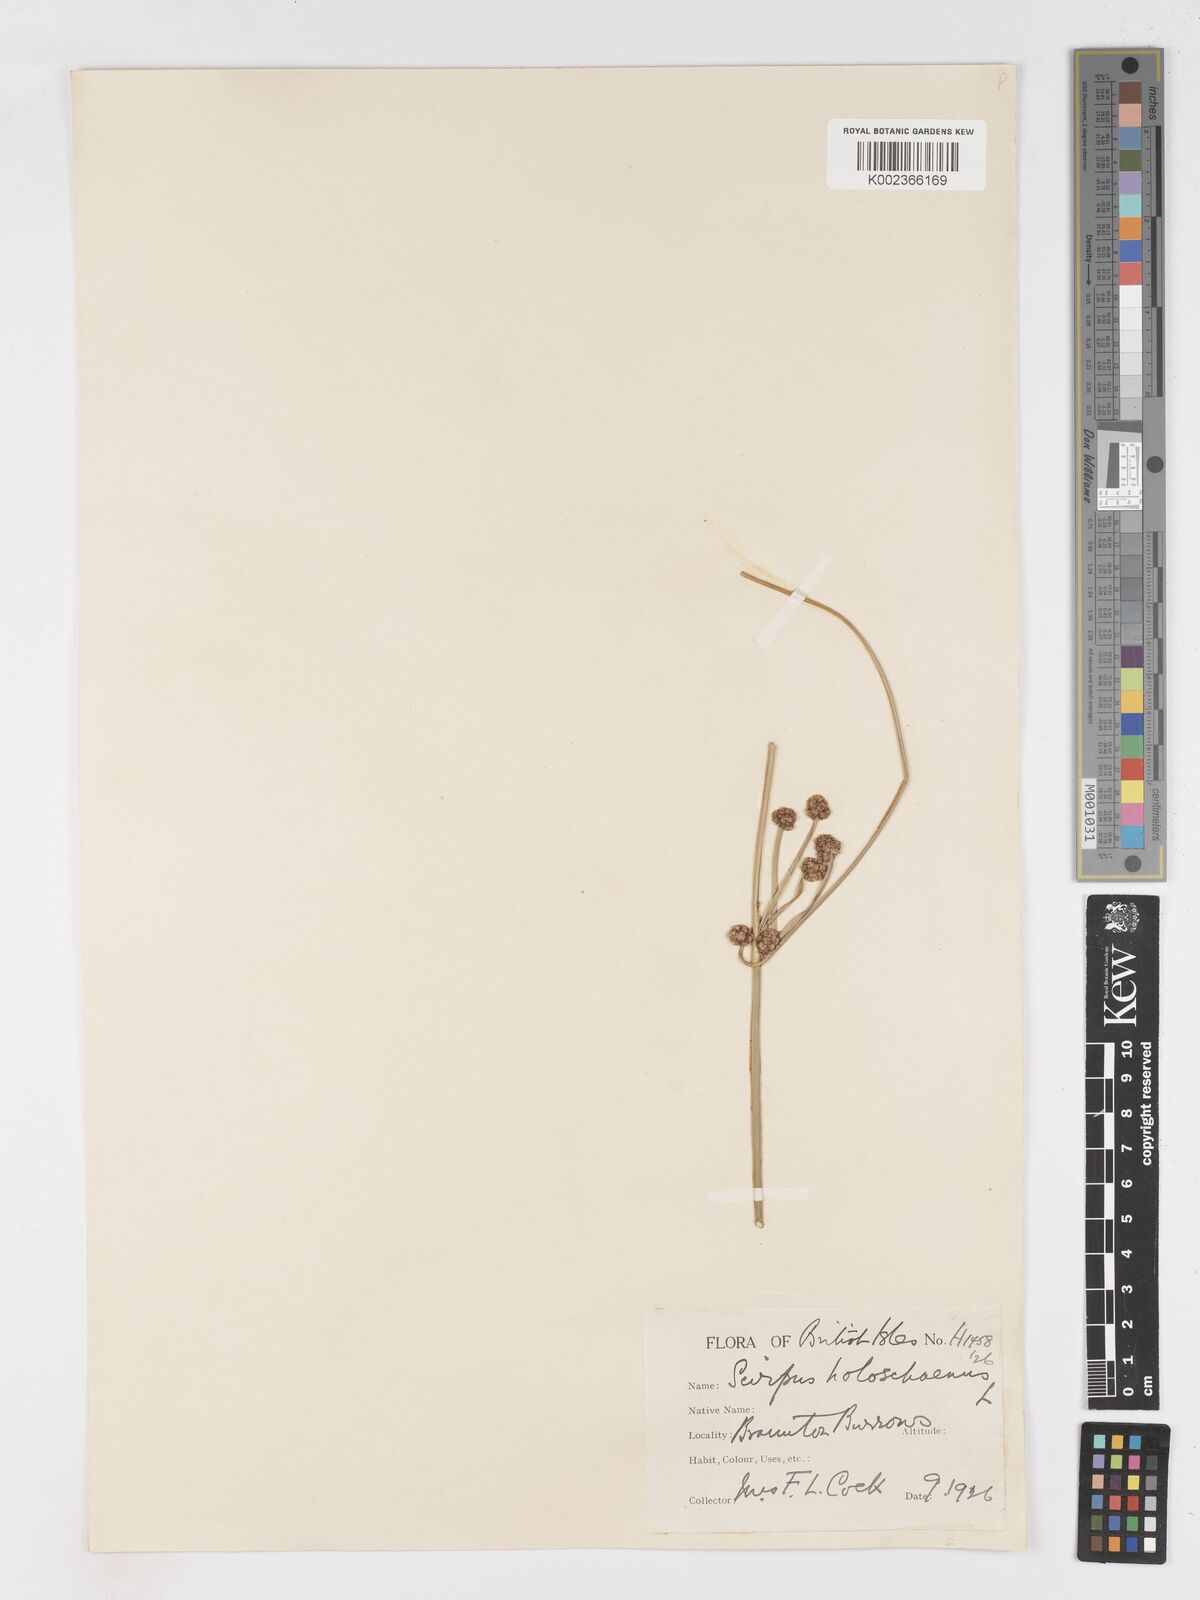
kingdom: Plantae
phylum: Tracheophyta
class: Liliopsida
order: Poales
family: Cyperaceae
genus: Scirpoides
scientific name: Scirpoides holoschoenus
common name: Round-headed club-rush
